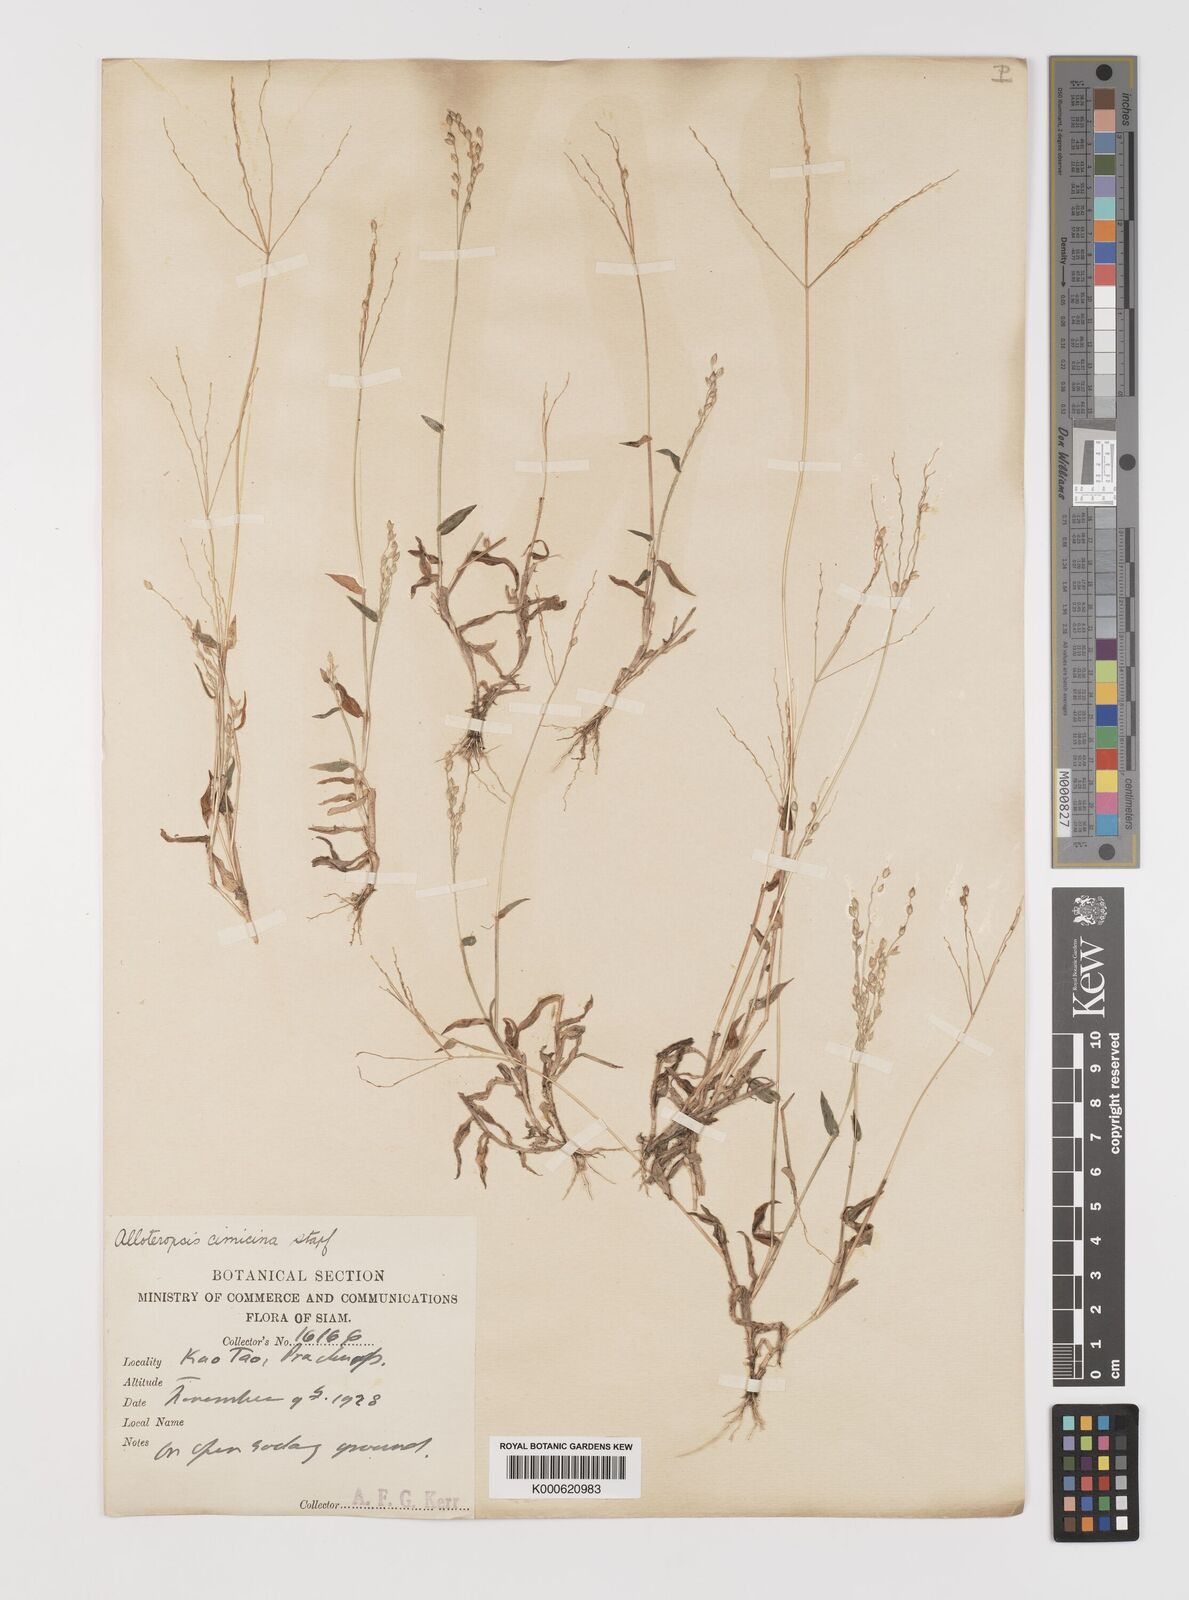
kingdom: Plantae
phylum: Tracheophyta
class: Liliopsida
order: Poales
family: Poaceae
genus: Alloteropsis
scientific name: Alloteropsis cimicina
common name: Summergrass
